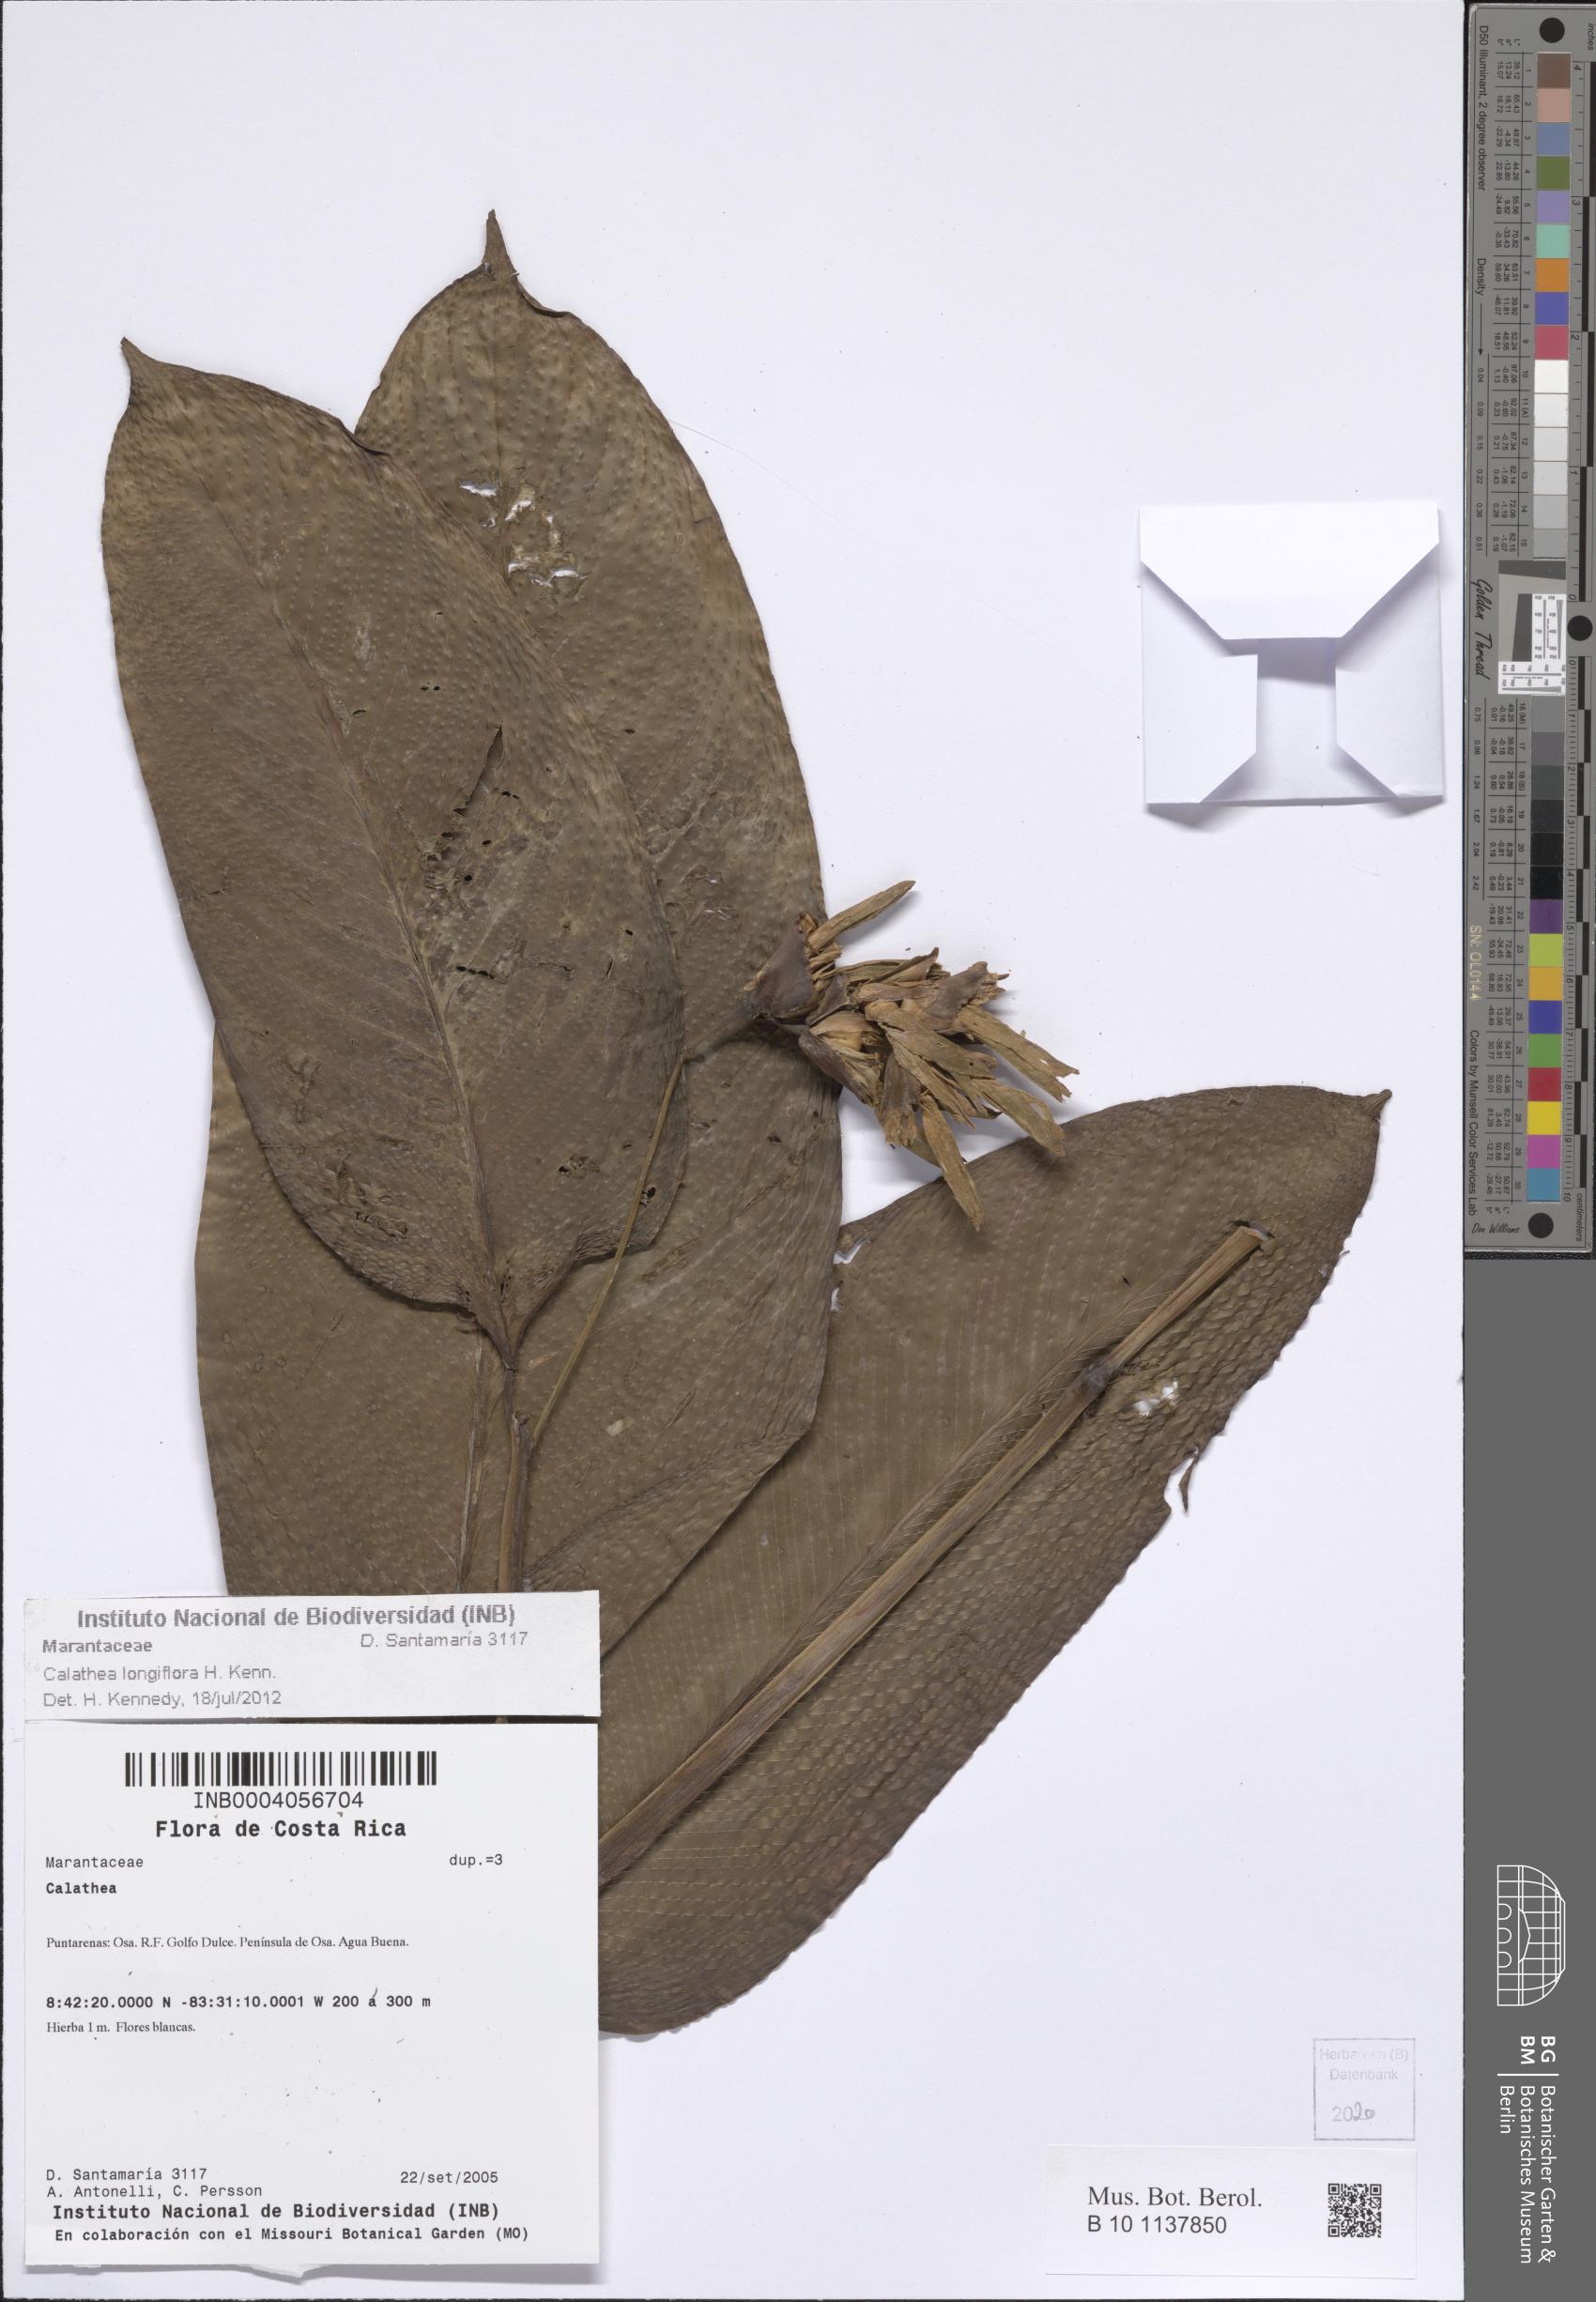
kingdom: Plantae
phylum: Tracheophyta
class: Liliopsida
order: Zingiberales
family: Marantaceae
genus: Goeppertia
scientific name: Goeppertia longiflora
